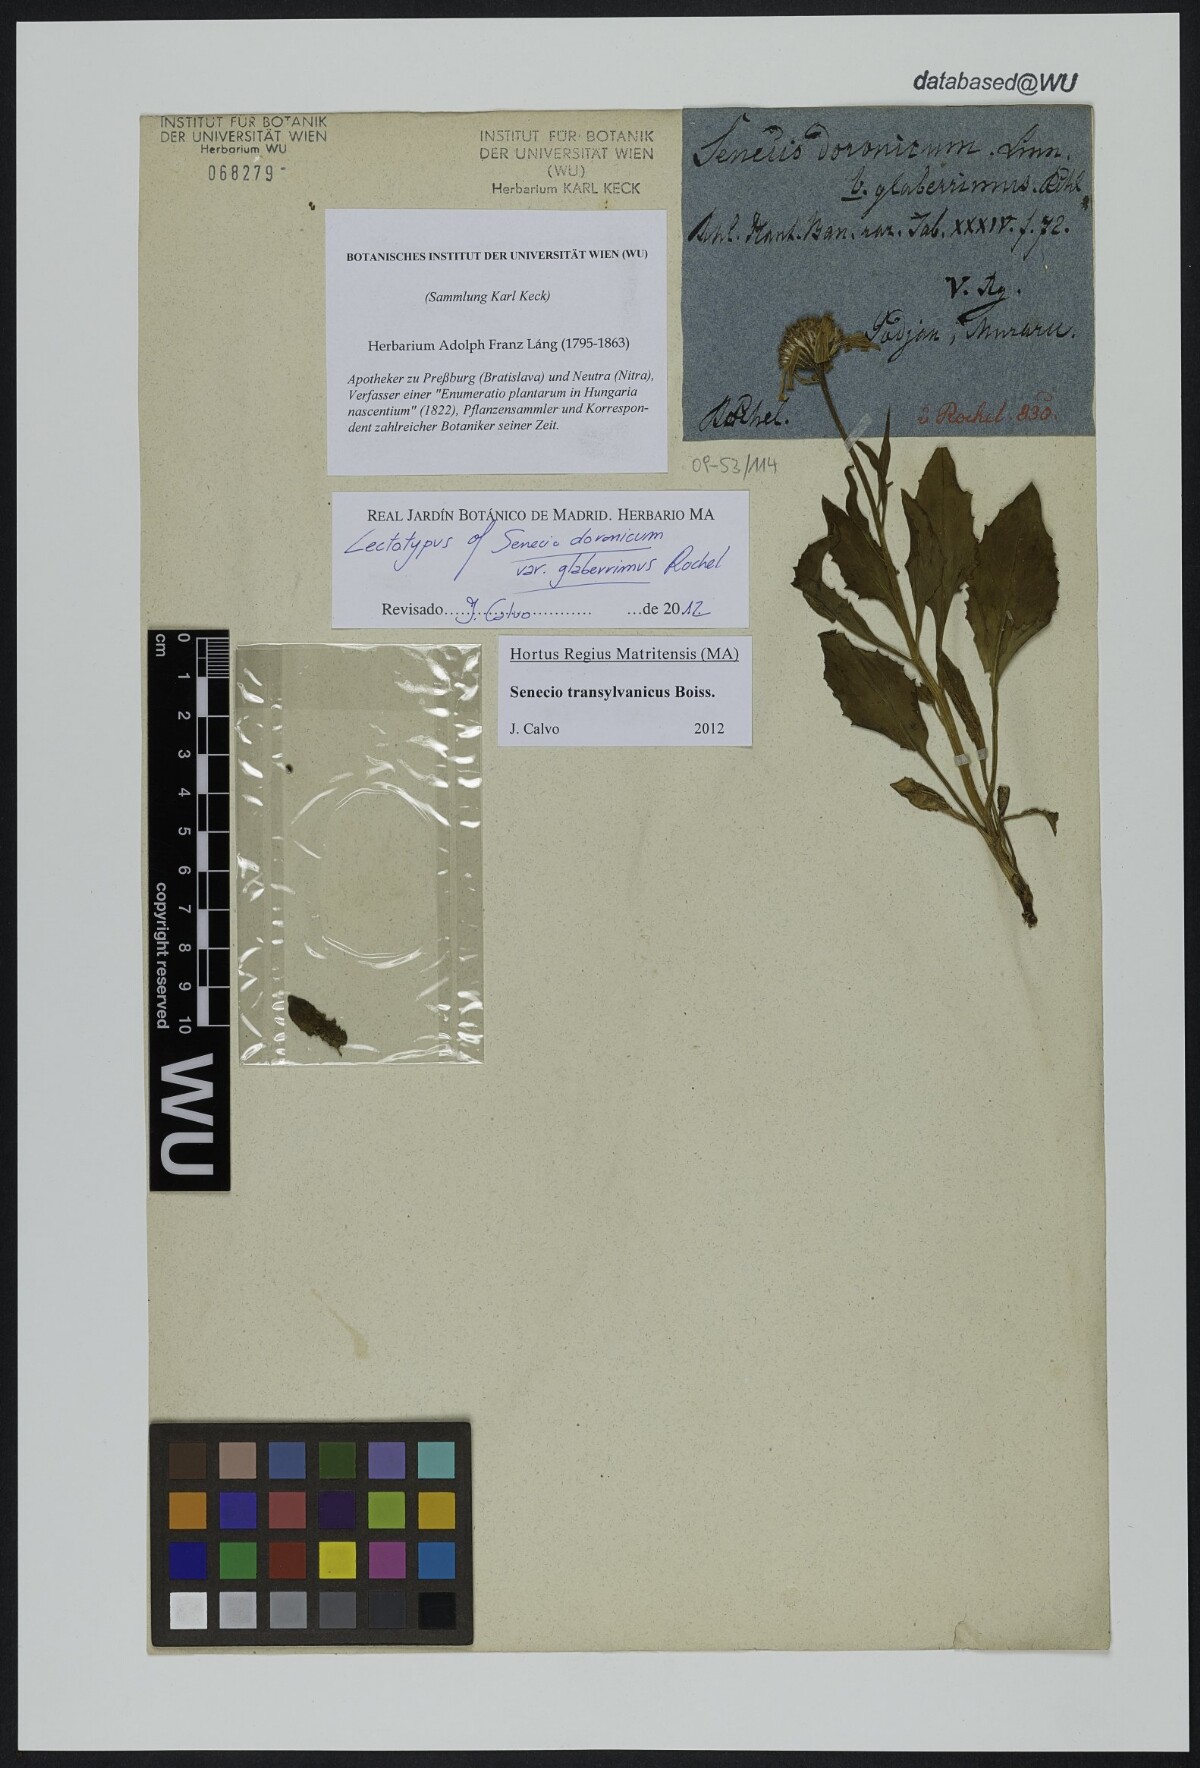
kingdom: Plantae
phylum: Tracheophyta
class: Magnoliopsida
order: Asterales
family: Asteraceae
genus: Senecio
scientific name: Senecio transylvanicus
